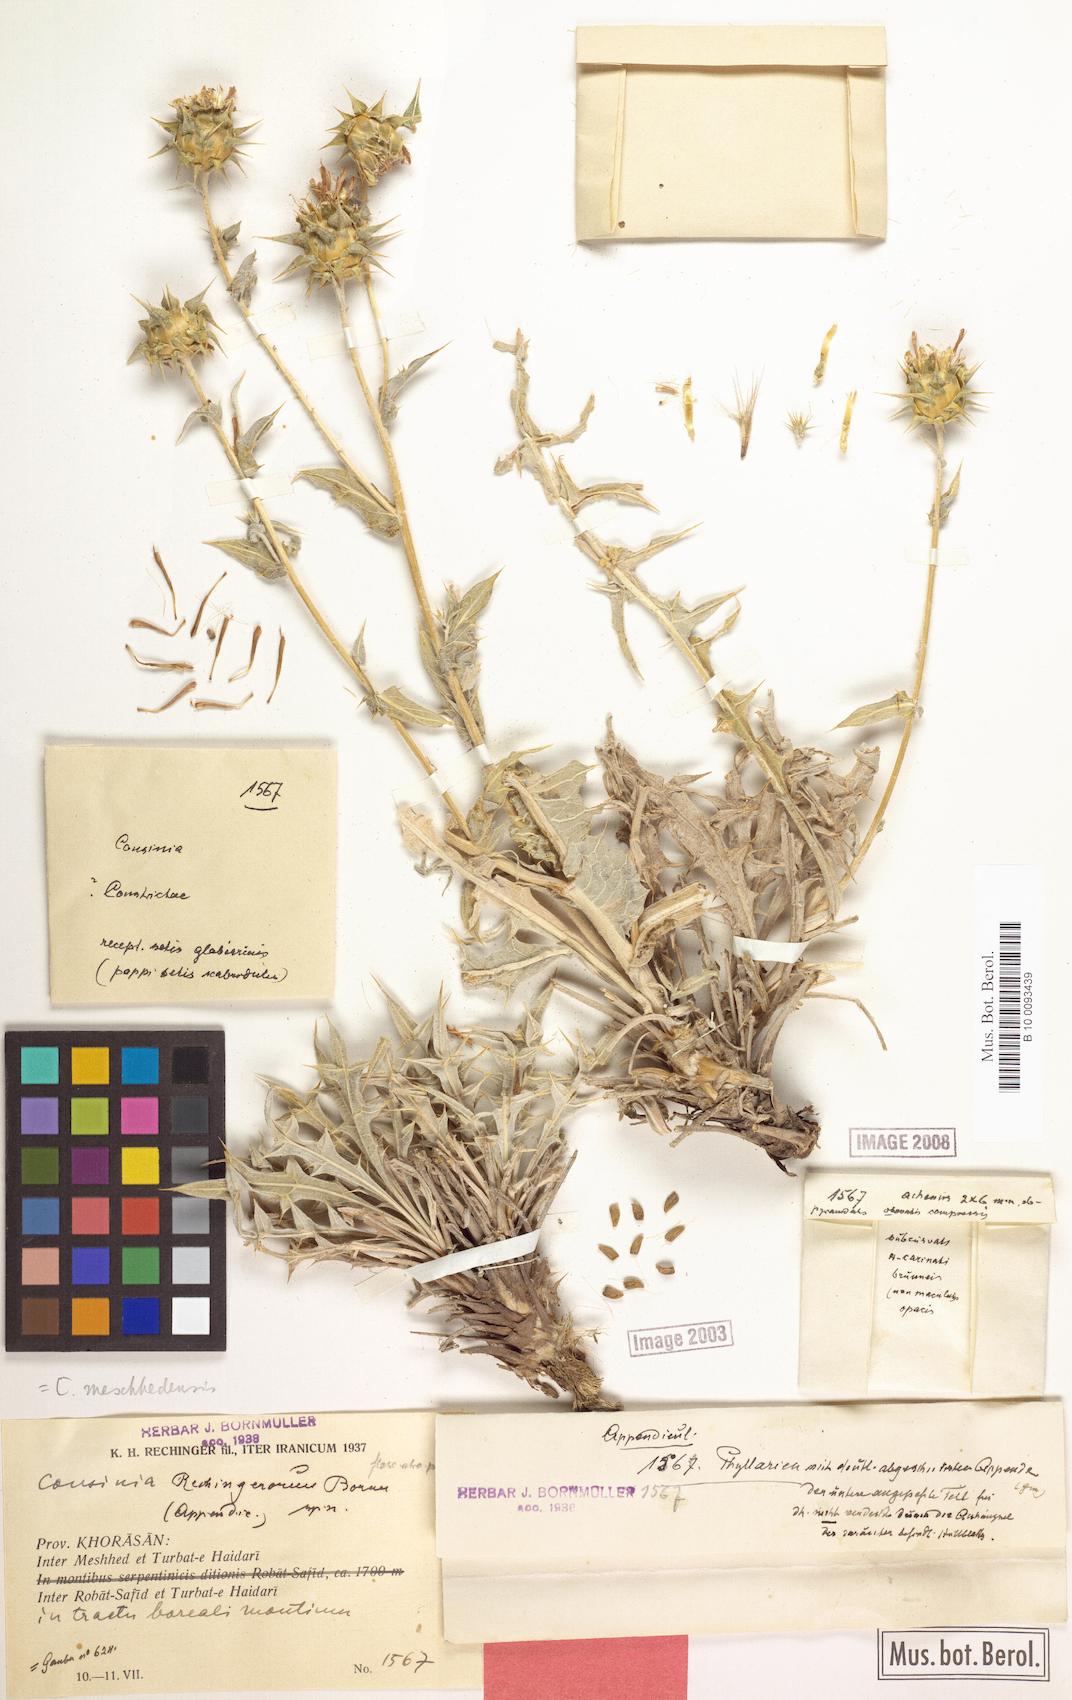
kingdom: Plantae
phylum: Tracheophyta
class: Magnoliopsida
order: Asterales
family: Asteraceae
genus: Cousinia
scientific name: Cousinia meshhedensis
